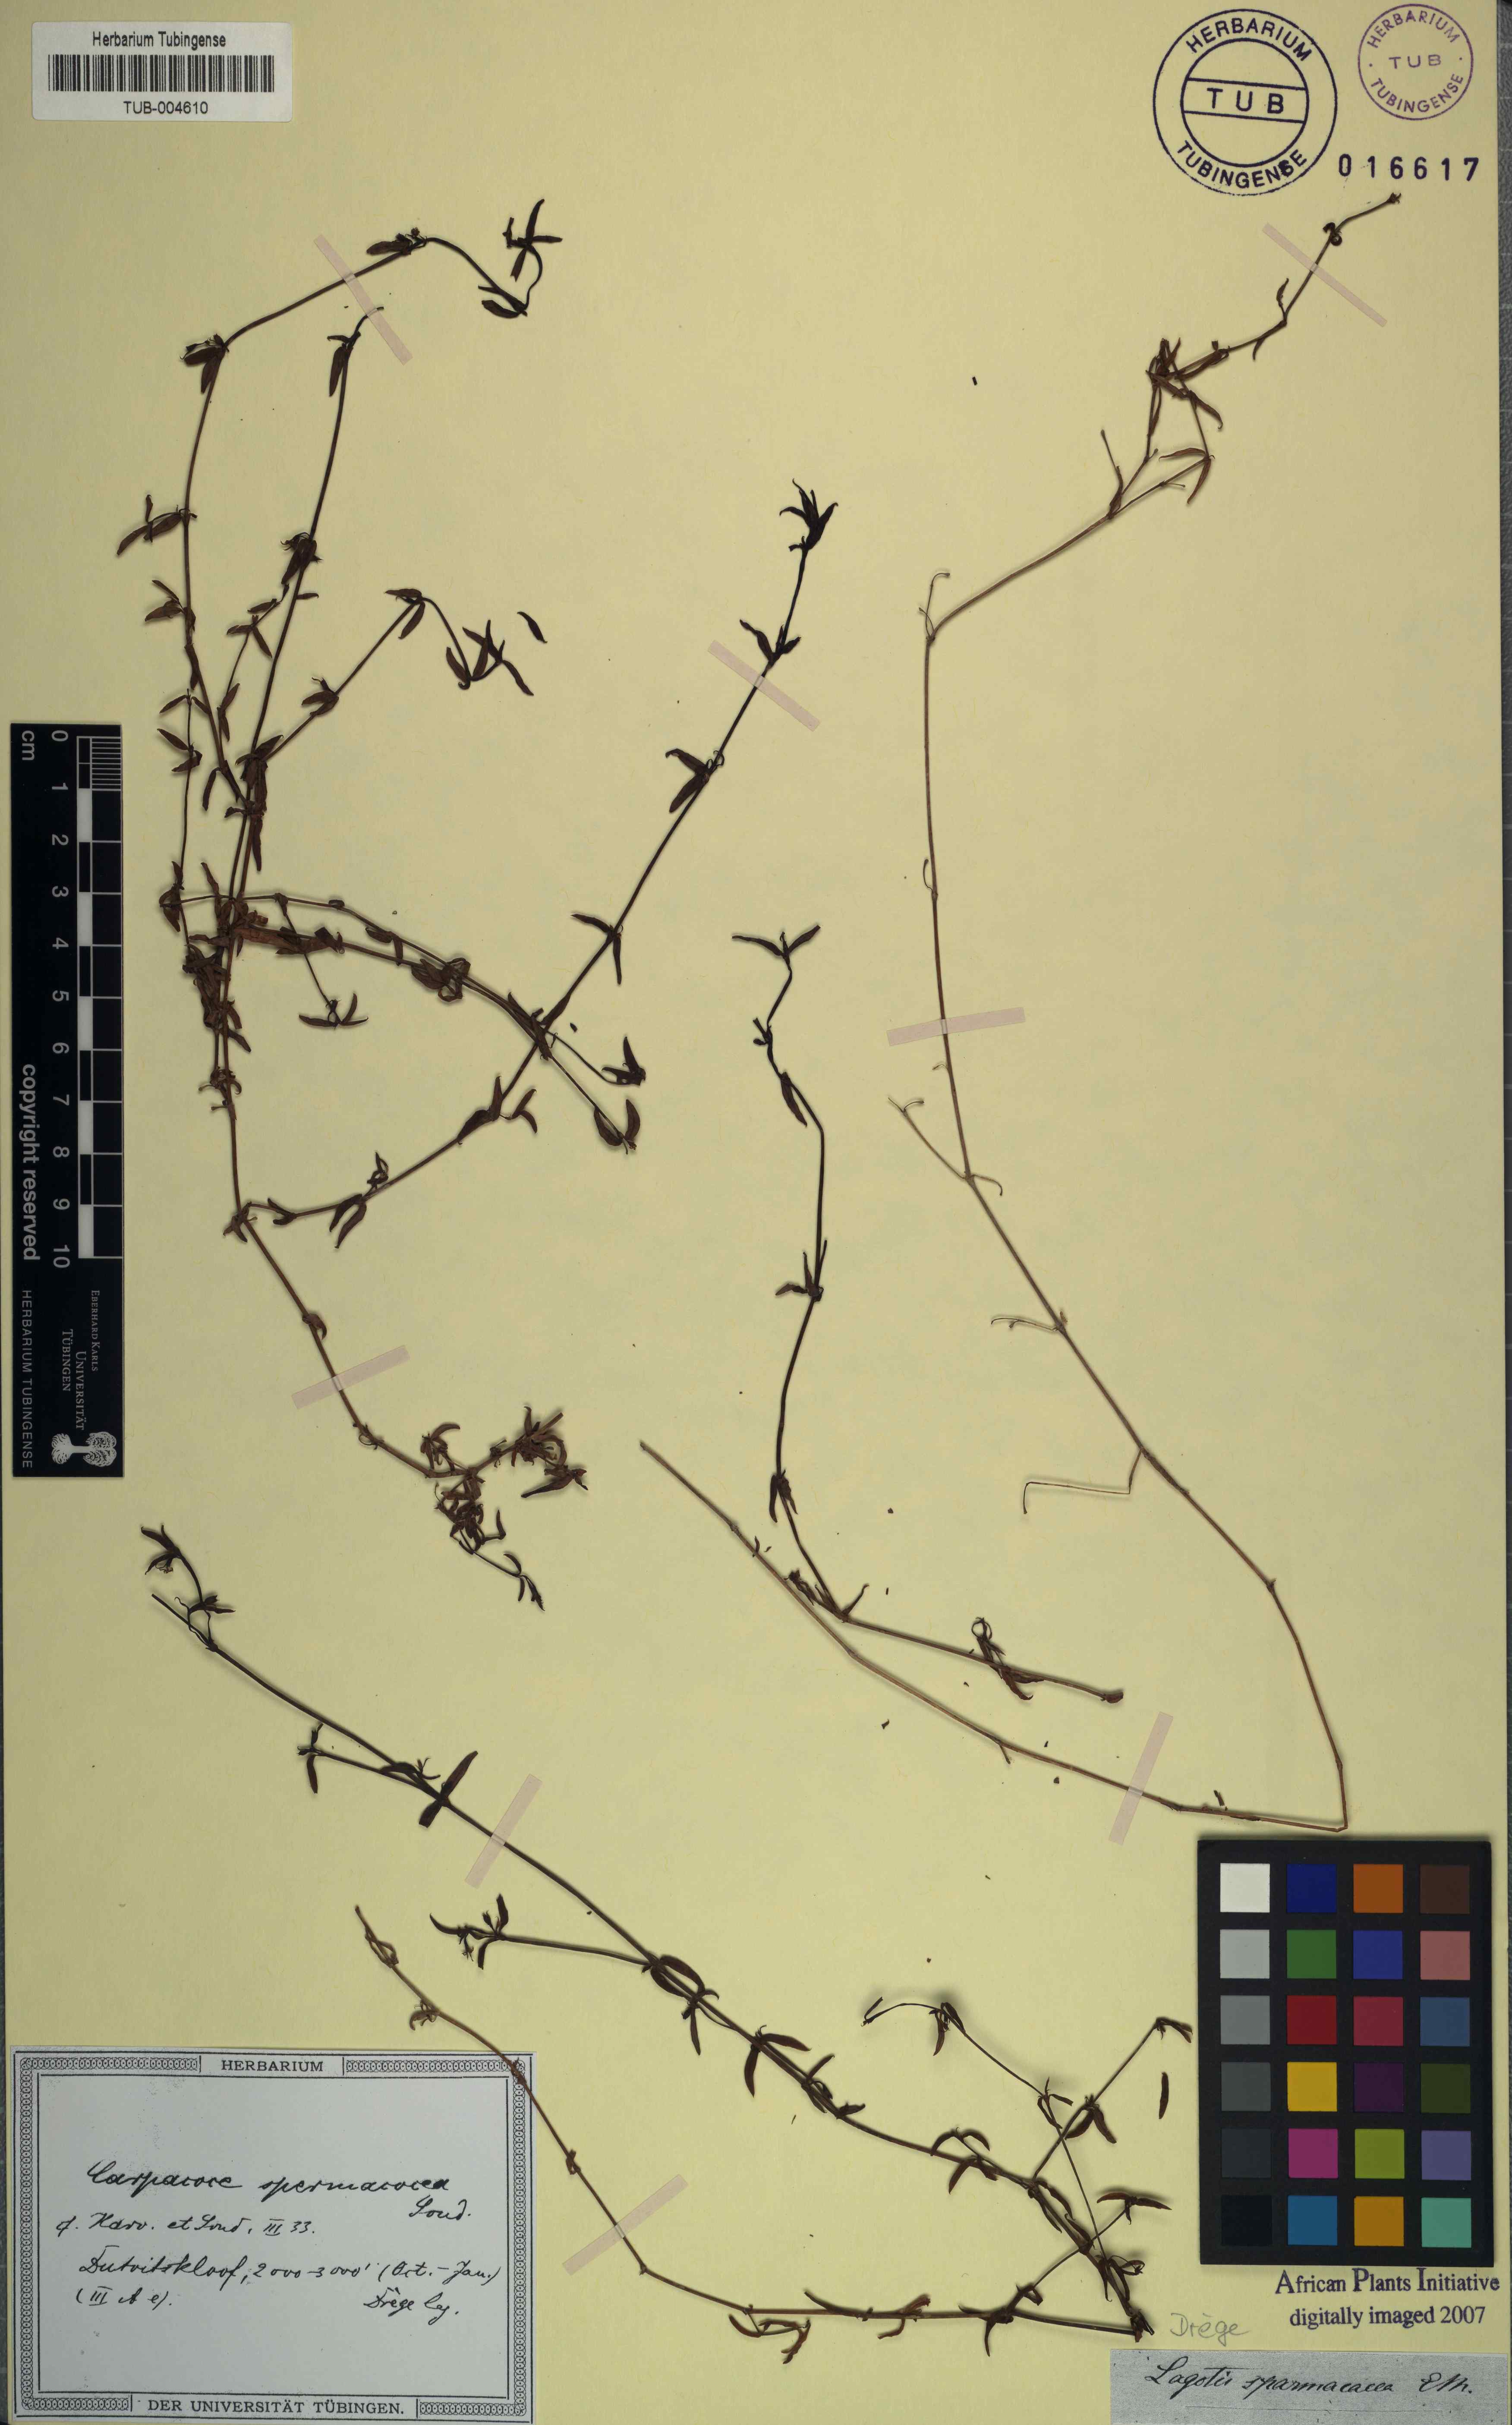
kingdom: Plantae
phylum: Tracheophyta
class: Magnoliopsida
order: Gentianales
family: Rubiaceae
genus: Carpacoce
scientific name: Carpacoce spermacoce
